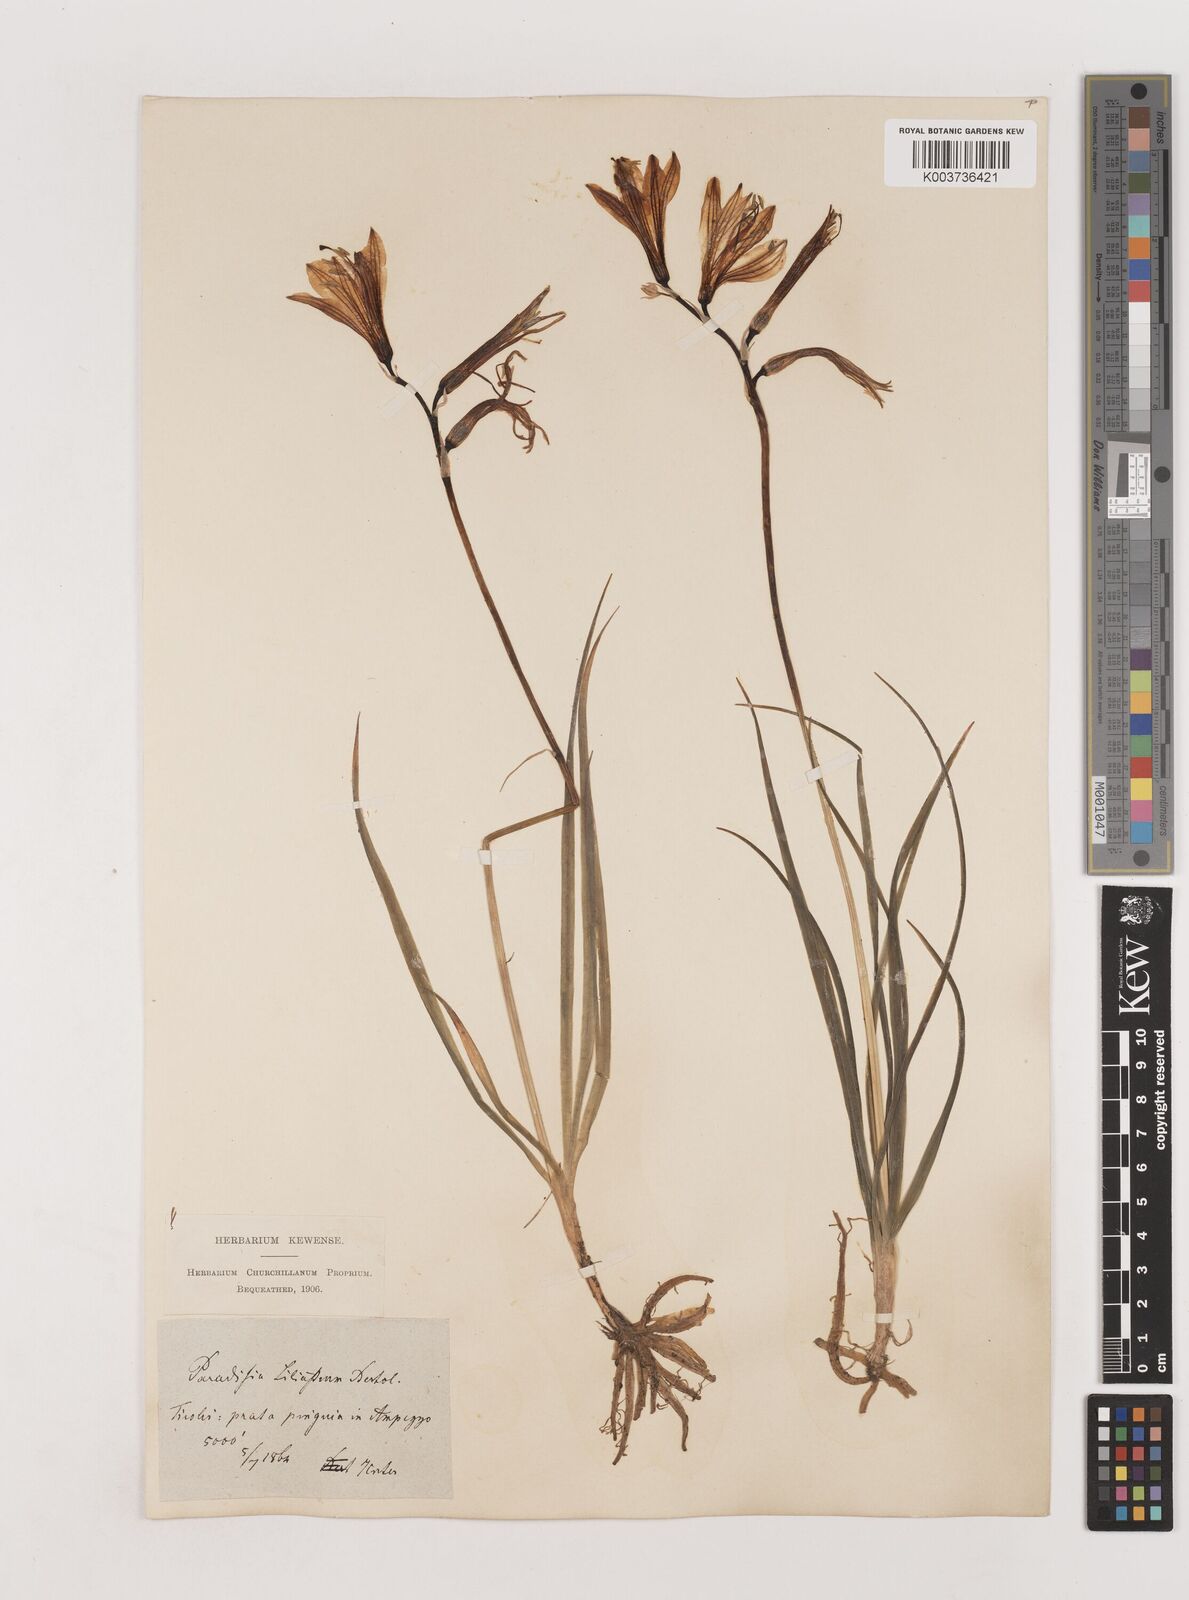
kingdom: Plantae
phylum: Tracheophyta
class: Liliopsida
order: Asparagales
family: Asparagaceae
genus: Paradisea
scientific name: Paradisea liliastrum
